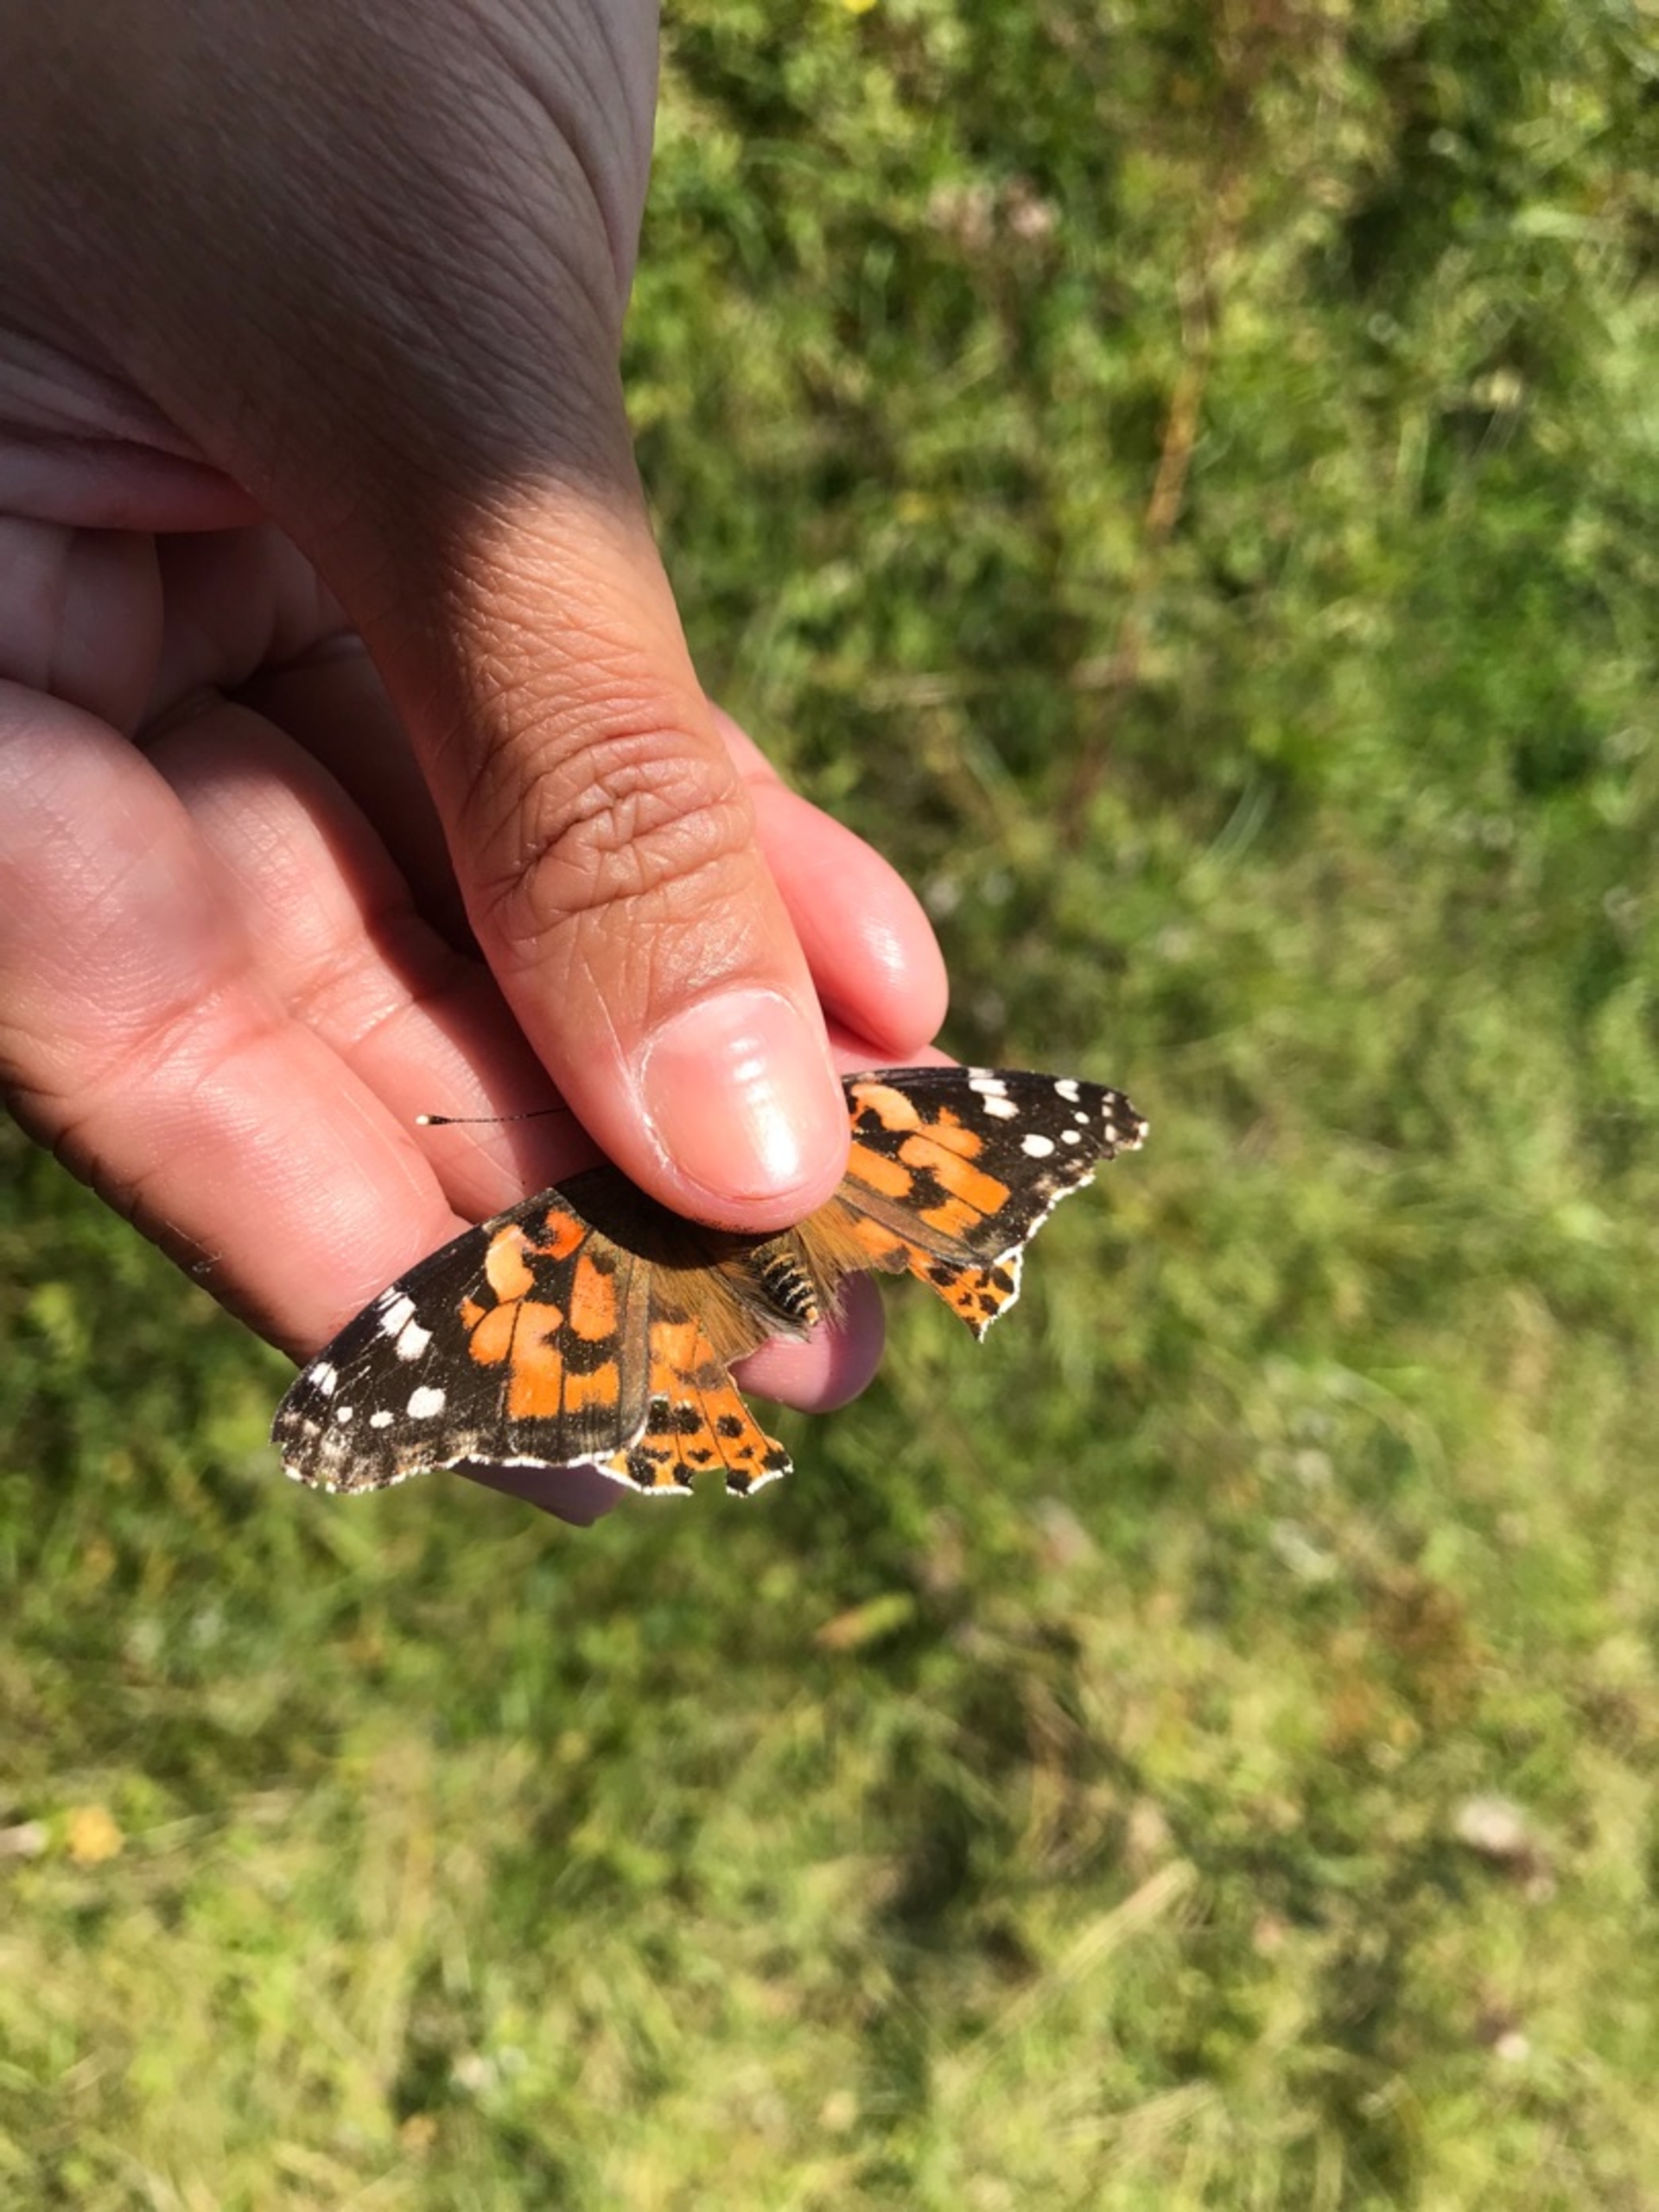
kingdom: Animalia
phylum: Arthropoda
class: Insecta
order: Lepidoptera
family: Nymphalidae
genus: Vanessa
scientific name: Vanessa cardui
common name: Tidselsommerfugl
